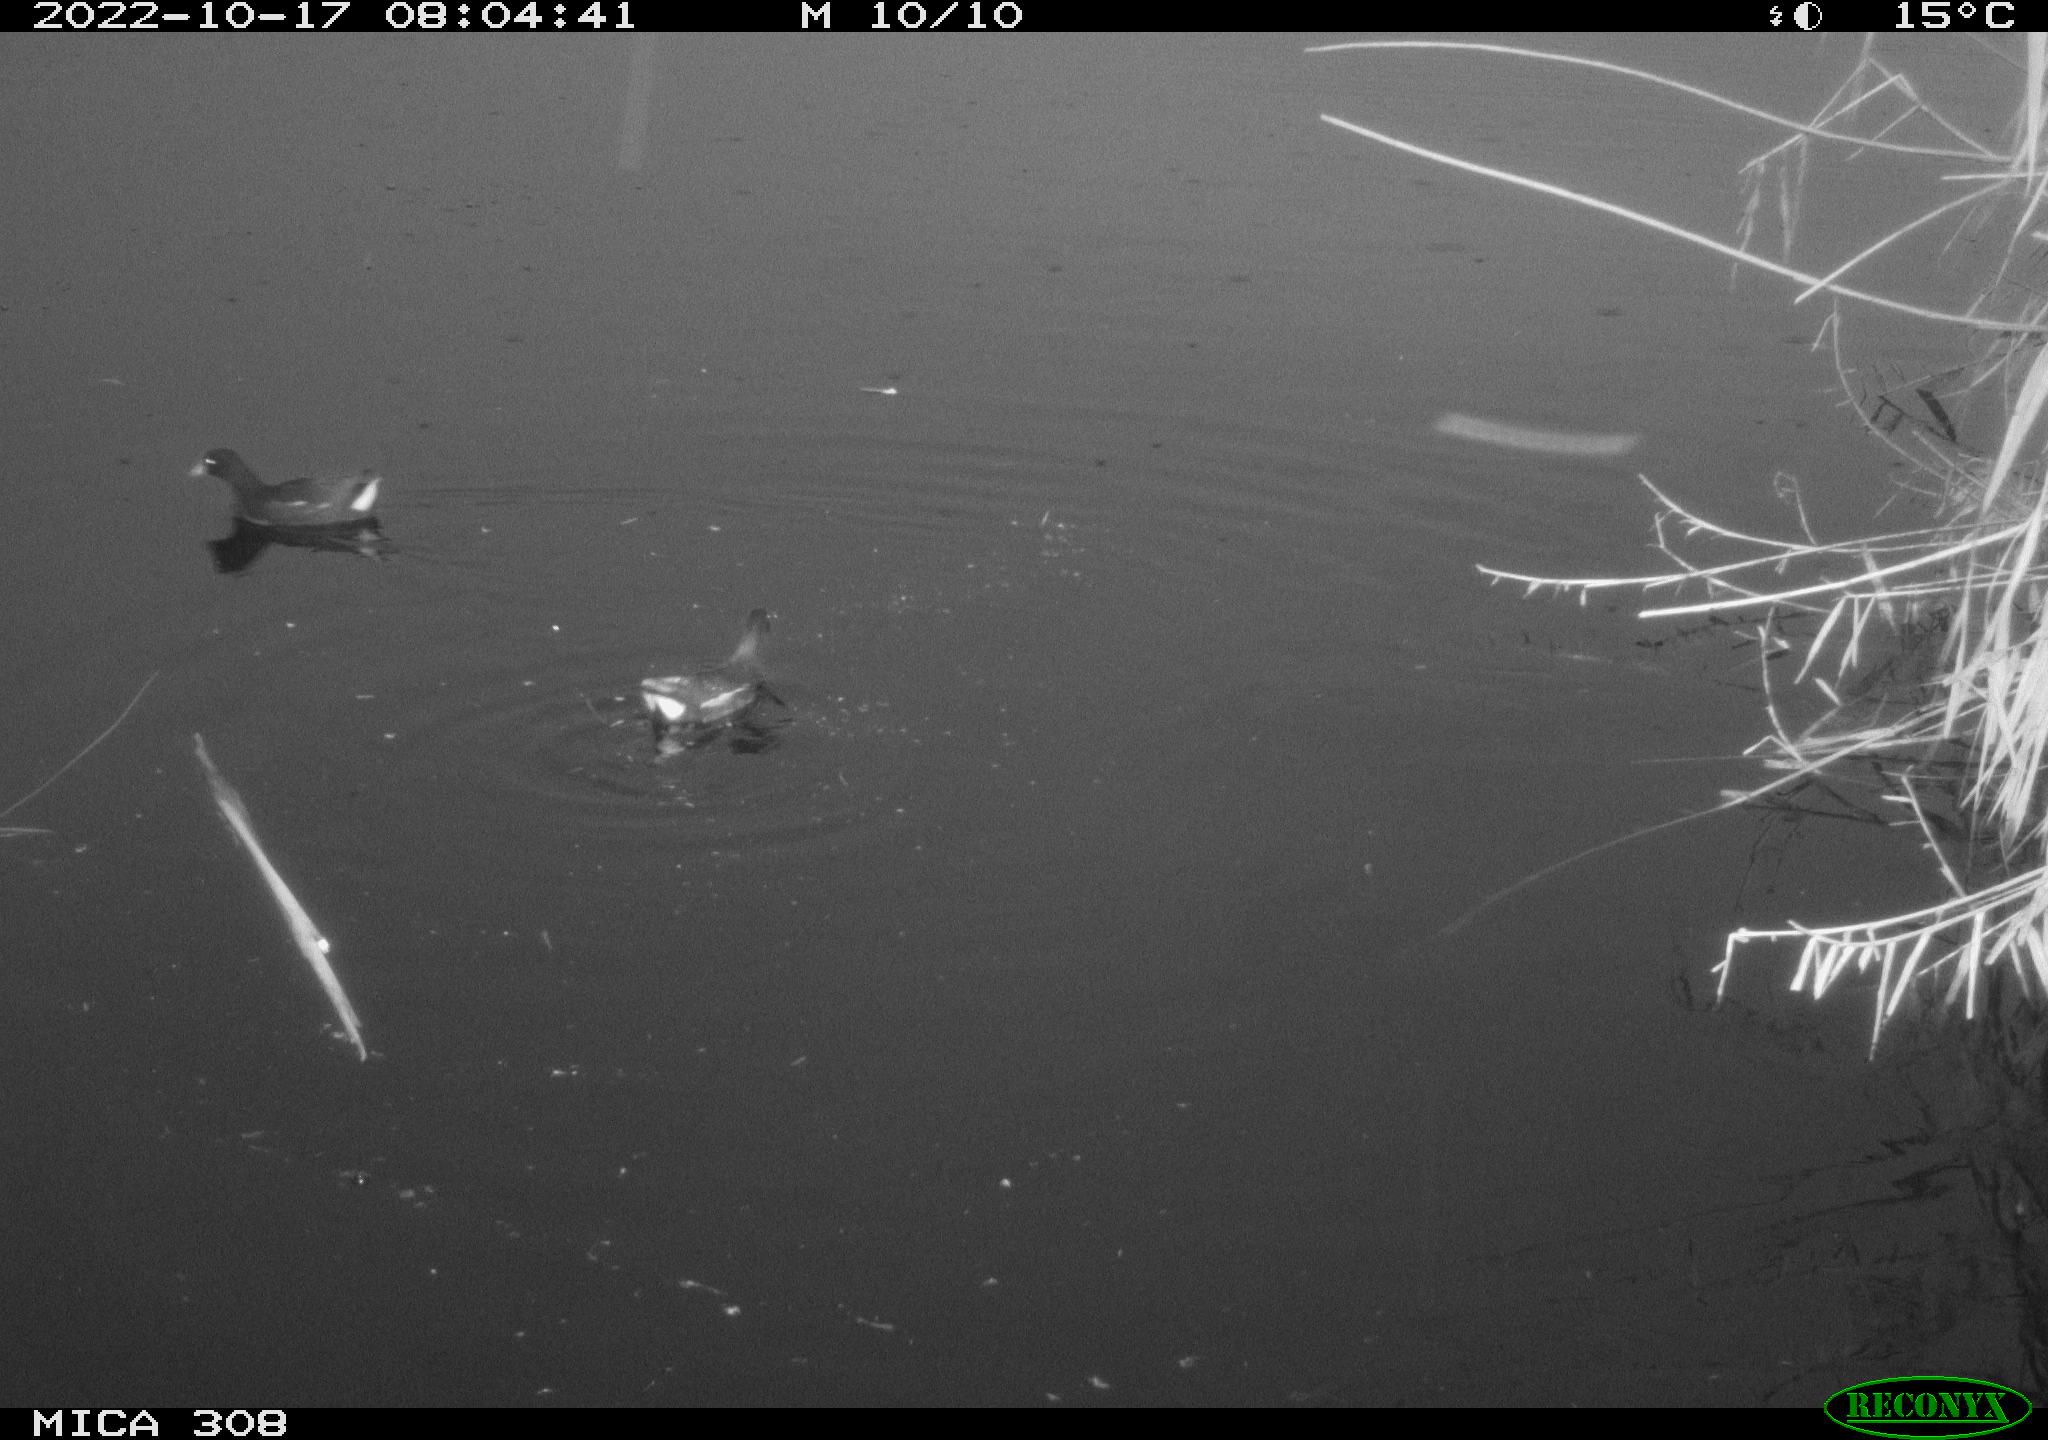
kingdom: Animalia
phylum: Chordata
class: Aves
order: Gruiformes
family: Rallidae
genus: Gallinula
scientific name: Gallinula chloropus
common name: Common moorhen
